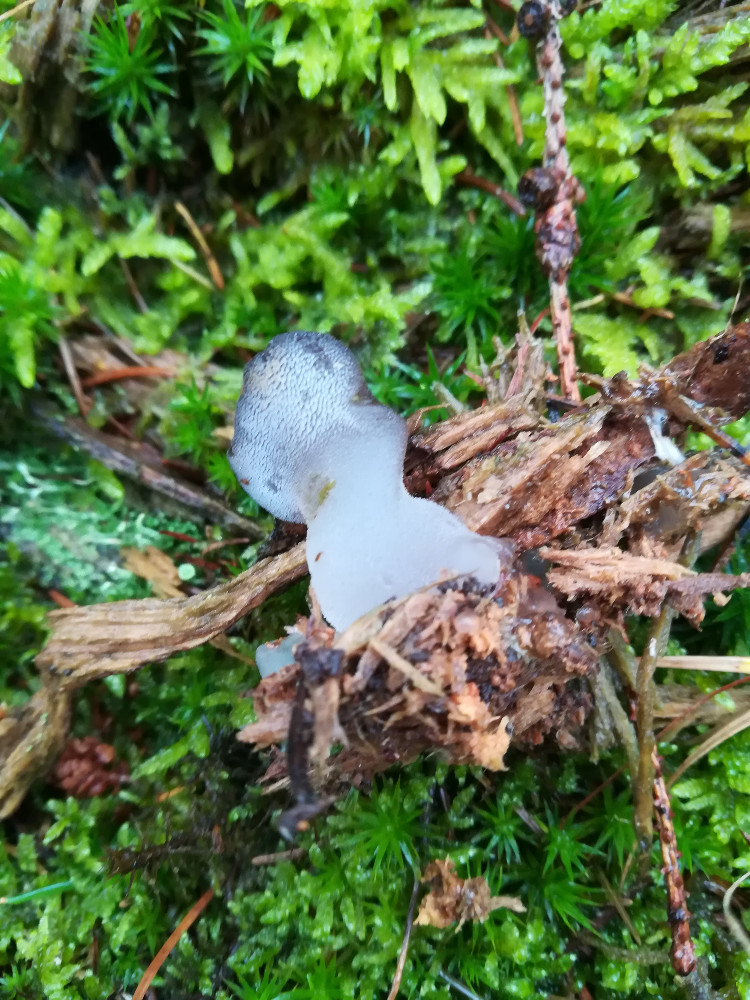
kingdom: Fungi
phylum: Basidiomycota
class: Agaricomycetes
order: Auriculariales
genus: Pseudohydnum
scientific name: Pseudohydnum gelatinosum
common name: bævretand
